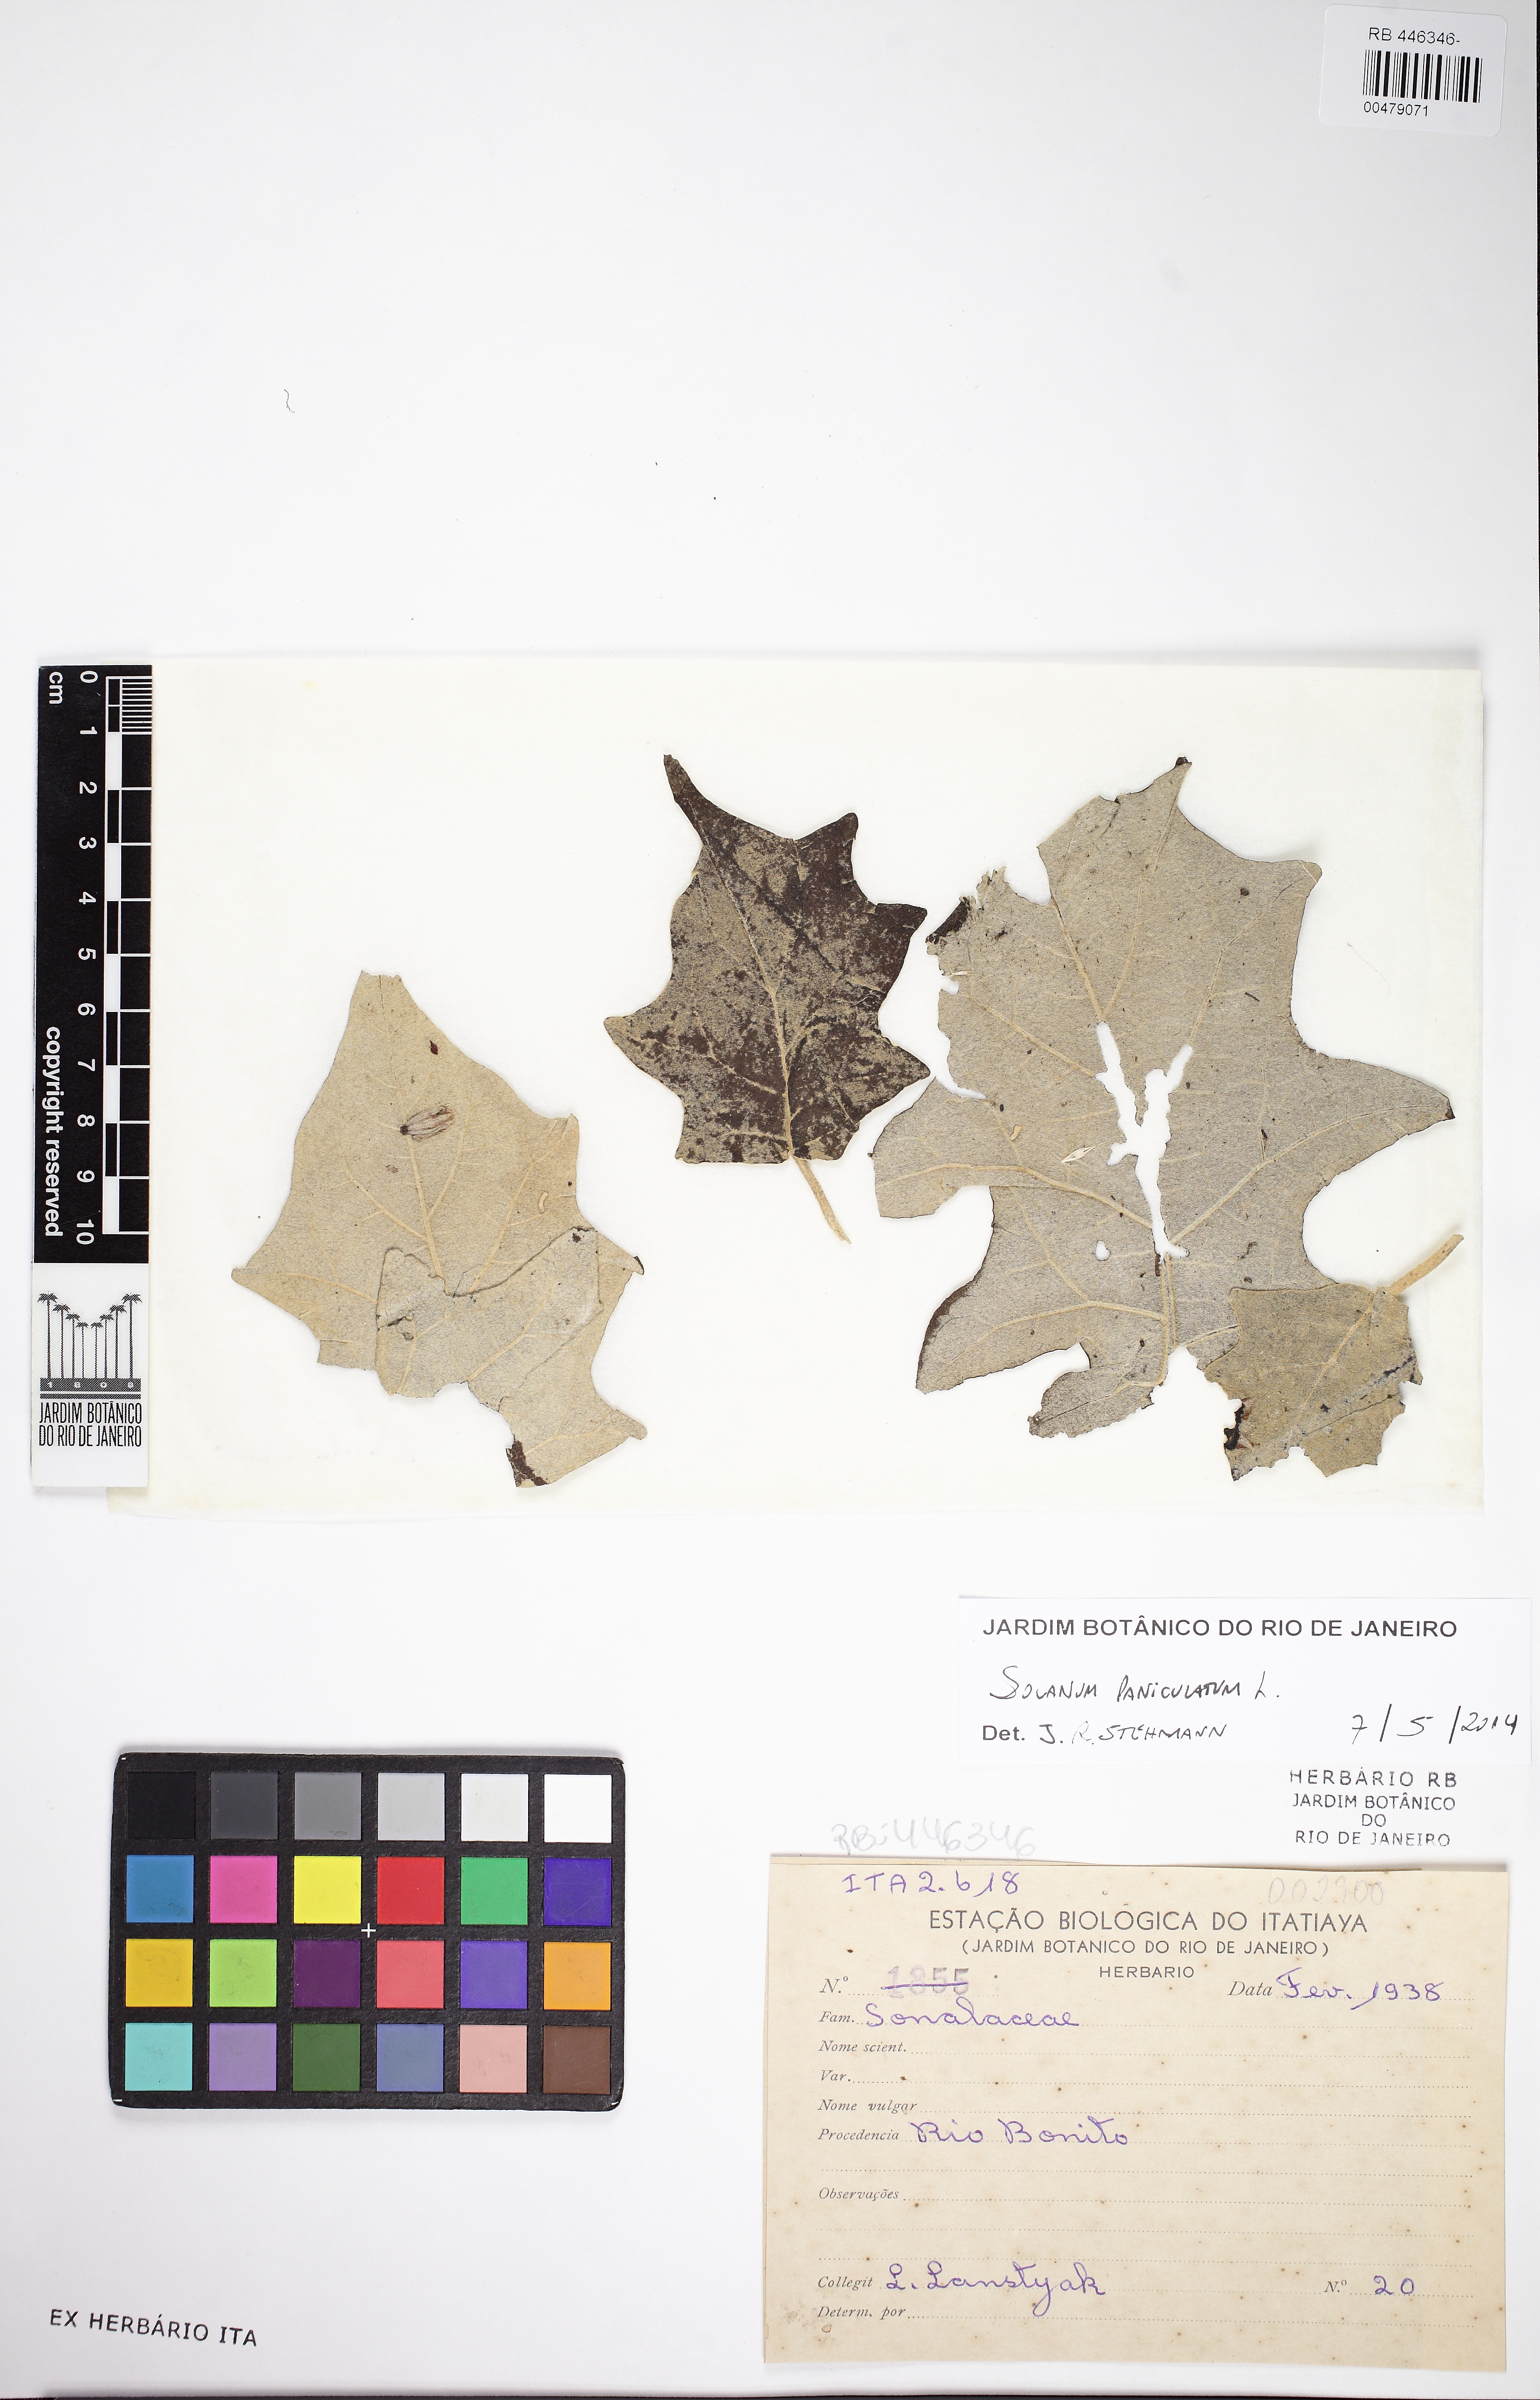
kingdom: Plantae
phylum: Tracheophyta
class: Magnoliopsida
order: Solanales
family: Solanaceae
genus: Solanum
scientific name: Solanum paniculatum
